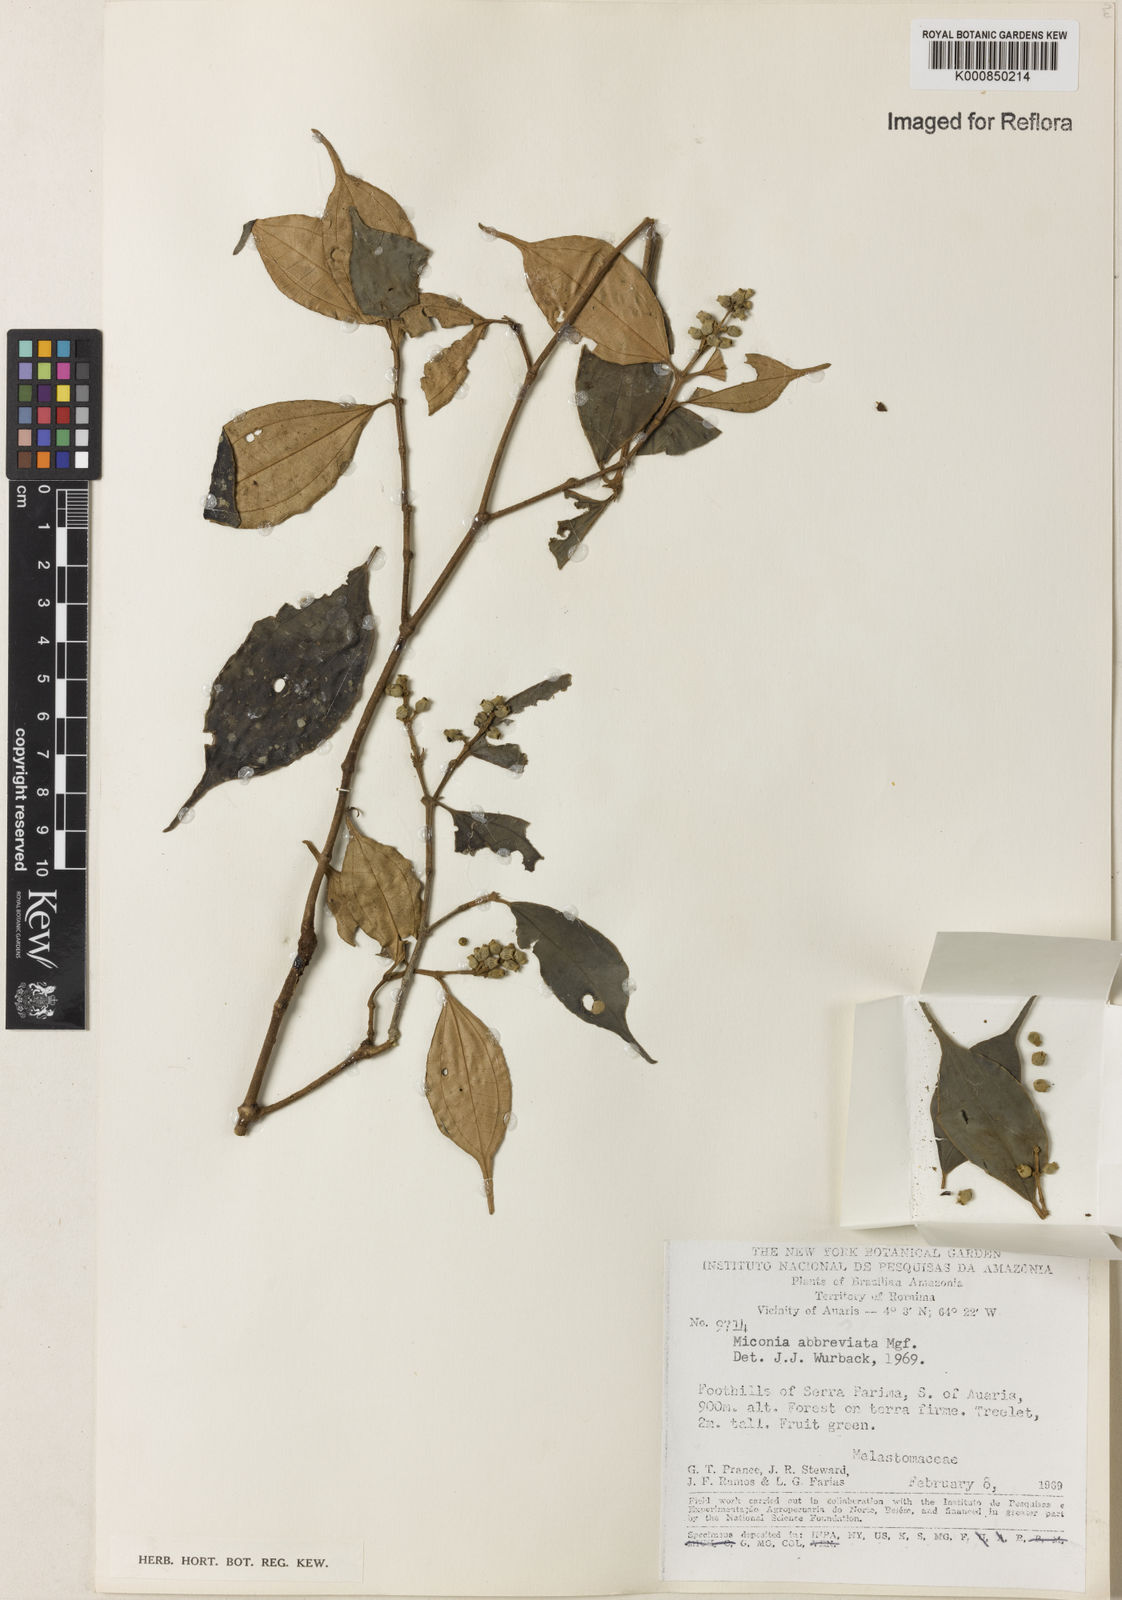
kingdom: Plantae
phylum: Tracheophyta
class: Magnoliopsida
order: Myrtales
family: Melastomataceae
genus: Miconia
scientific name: Miconia abbreviata
